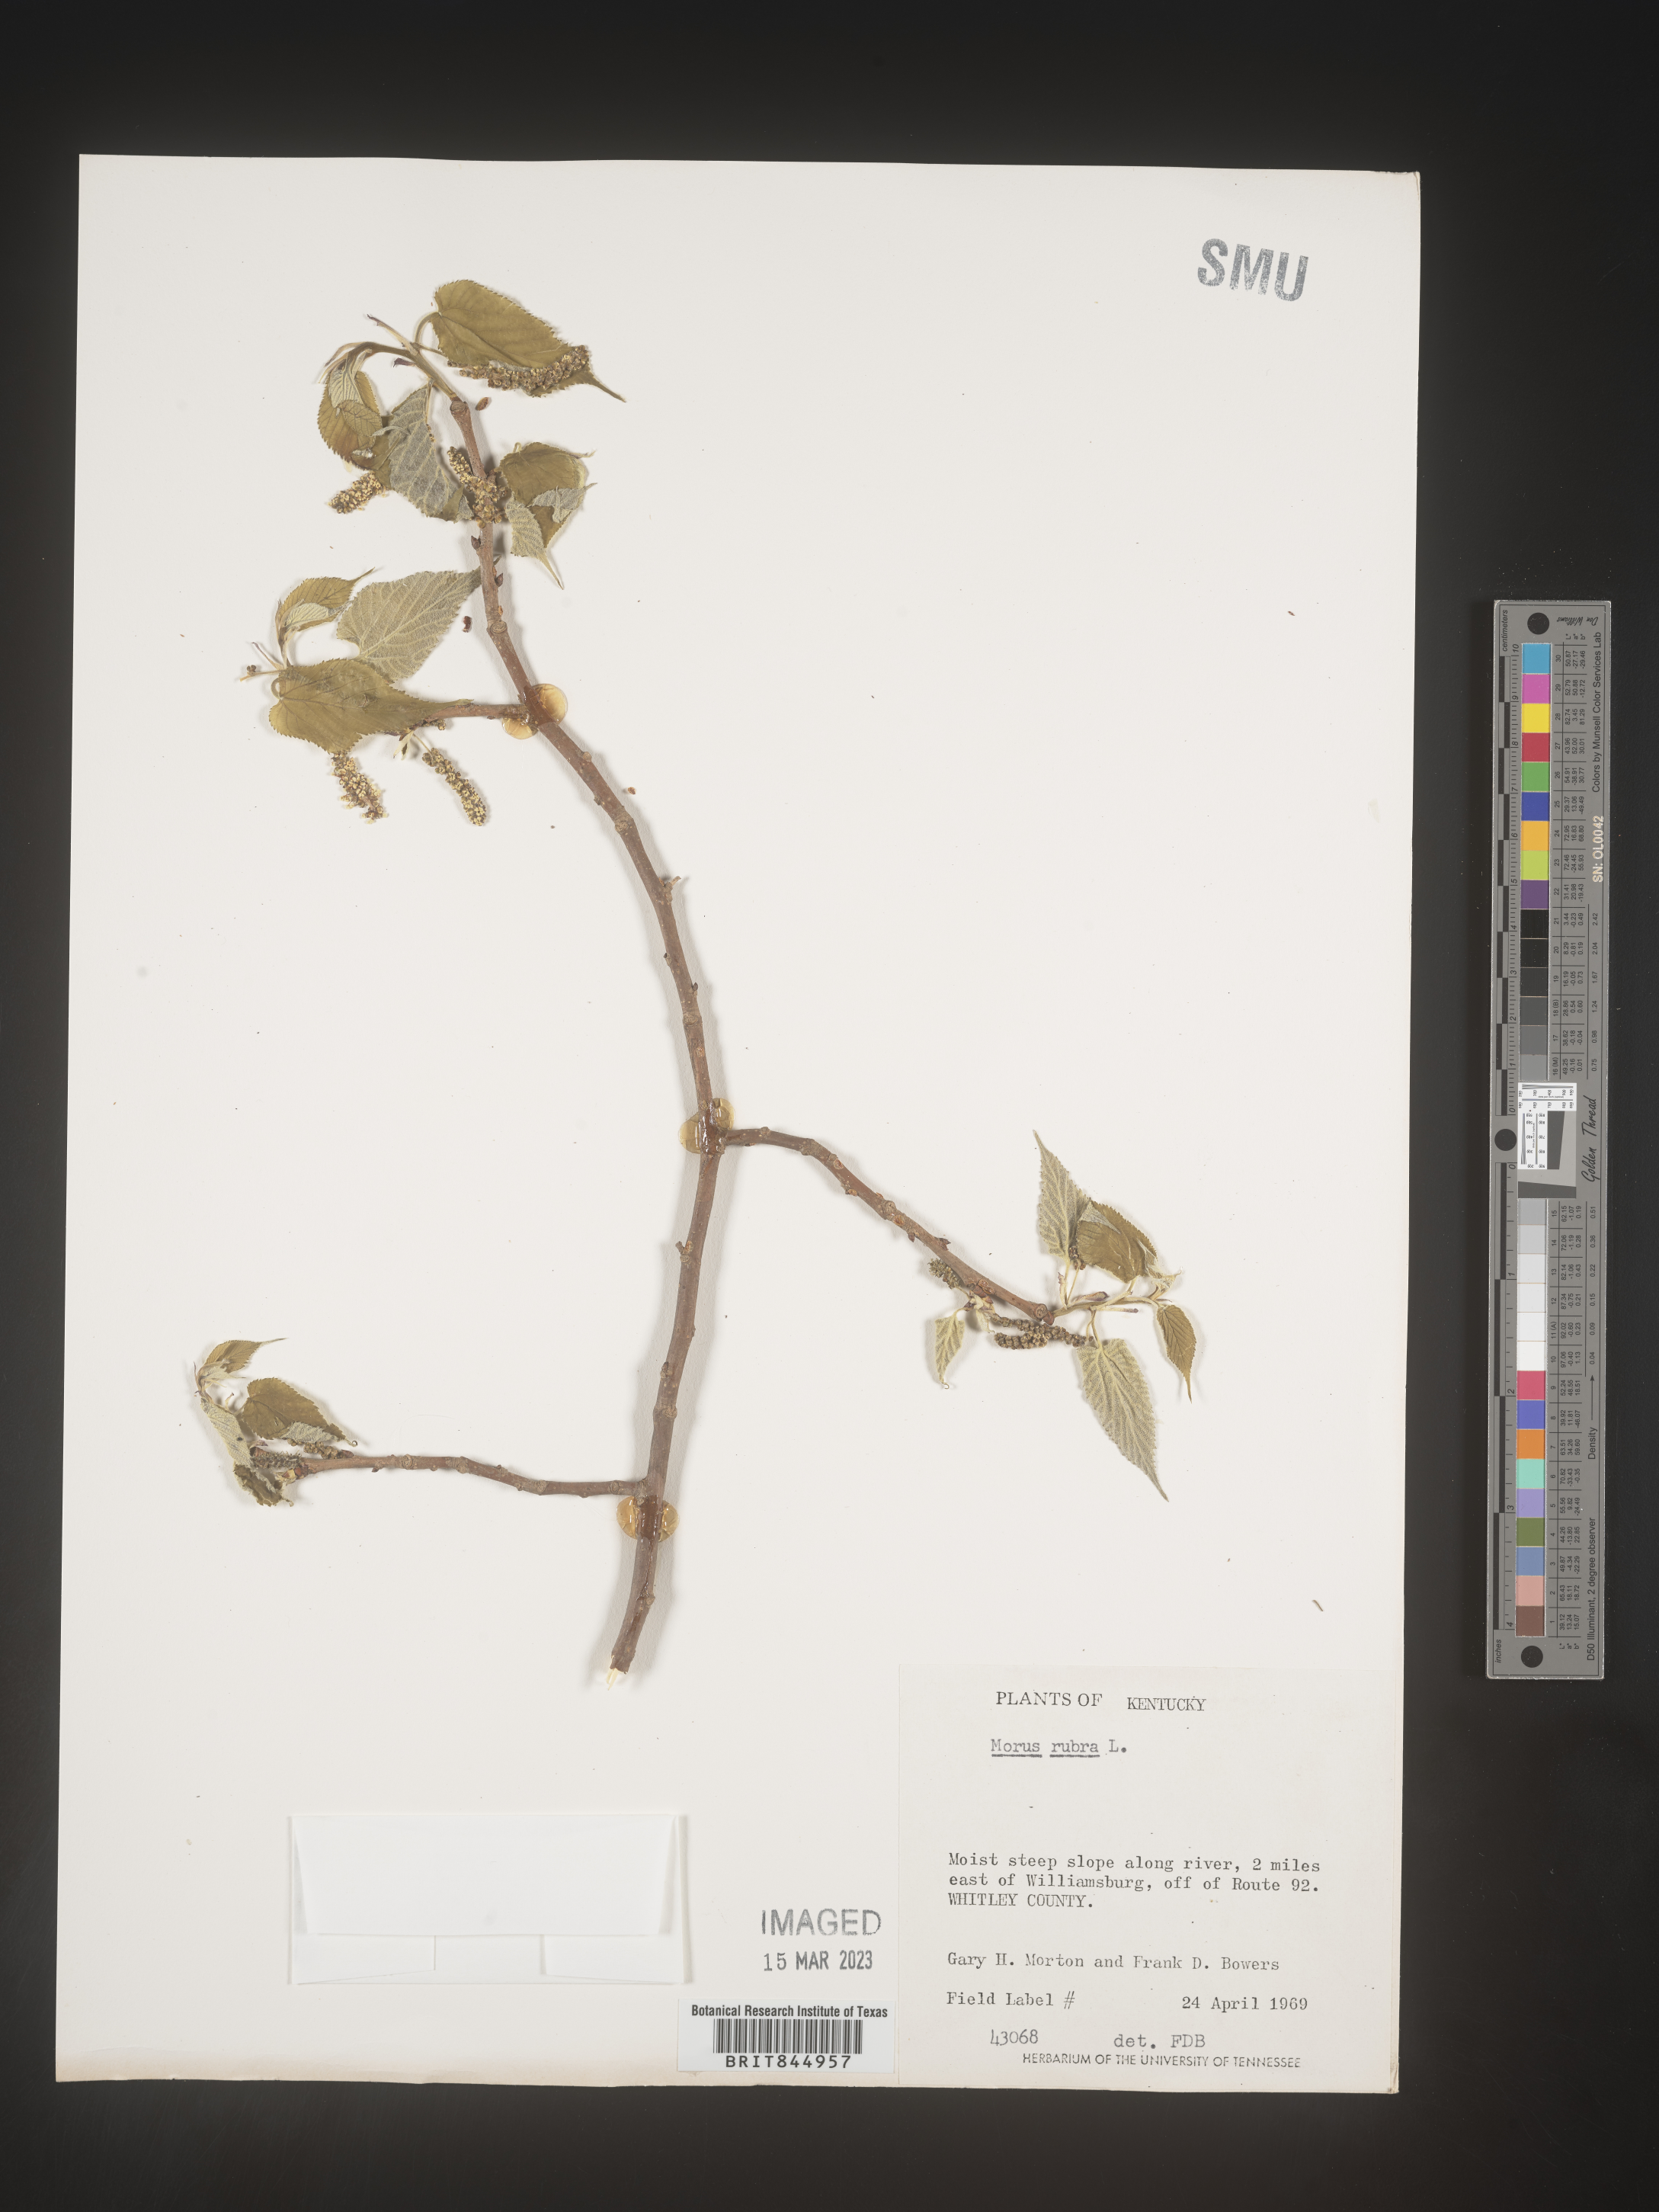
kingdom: Plantae
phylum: Tracheophyta
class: Magnoliopsida
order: Rosales
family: Moraceae
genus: Morus
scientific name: Morus rubra
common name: Red mulberry
